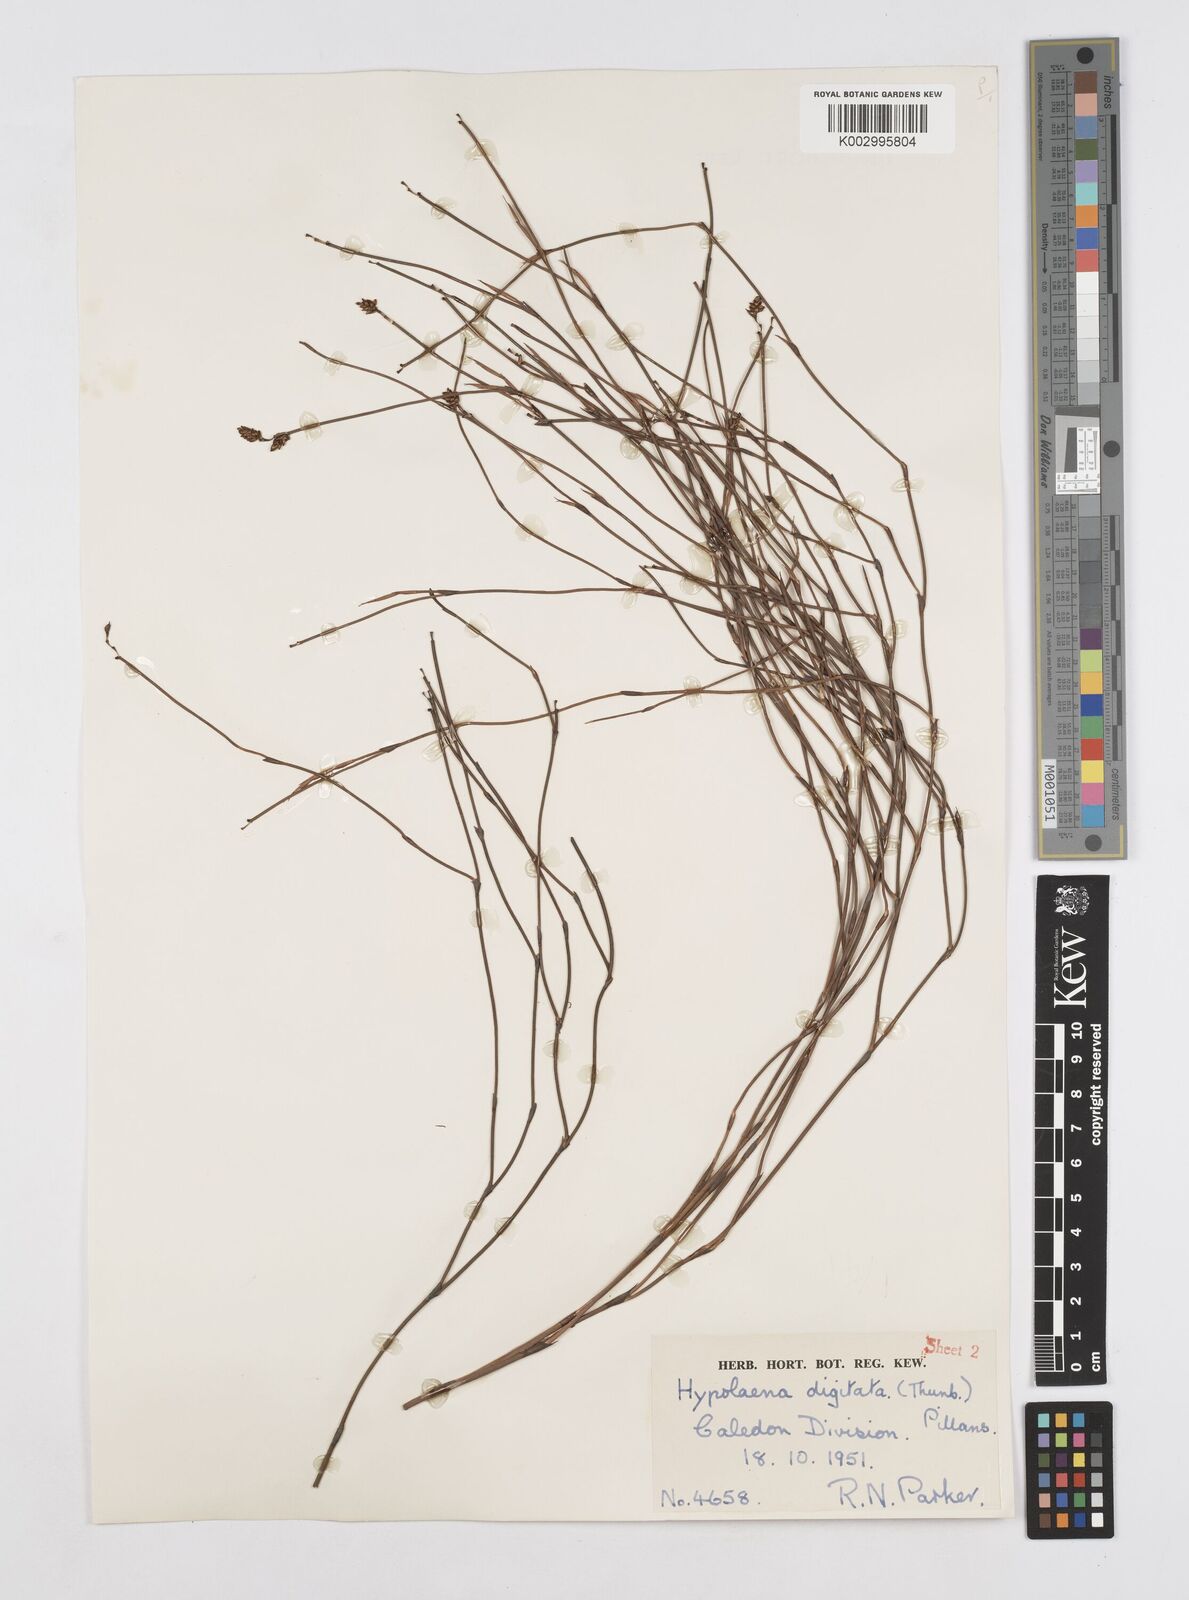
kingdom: Plantae
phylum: Tracheophyta
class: Liliopsida
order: Poales
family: Restionaceae
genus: Mastersiella
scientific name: Mastersiella digitata
